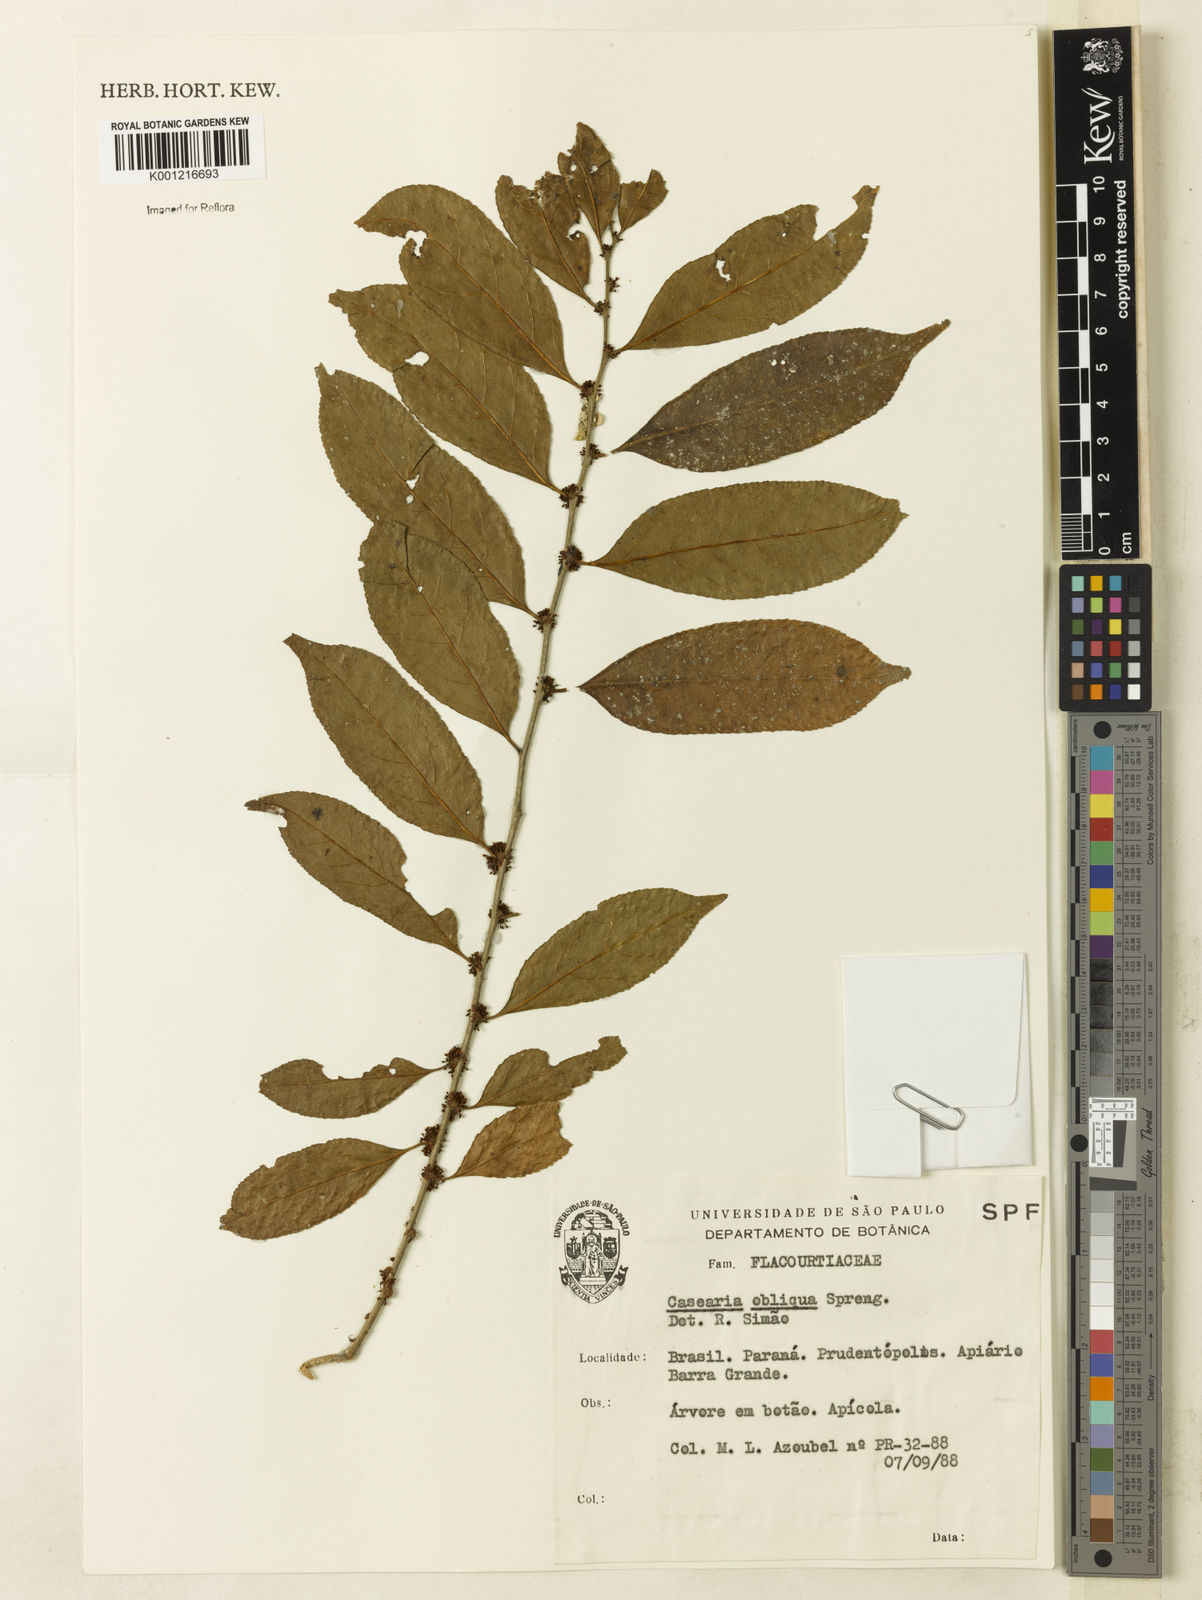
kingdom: Plantae
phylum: Tracheophyta
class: Magnoliopsida
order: Malpighiales
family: Salicaceae
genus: Casearia
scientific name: Casearia obliqua
